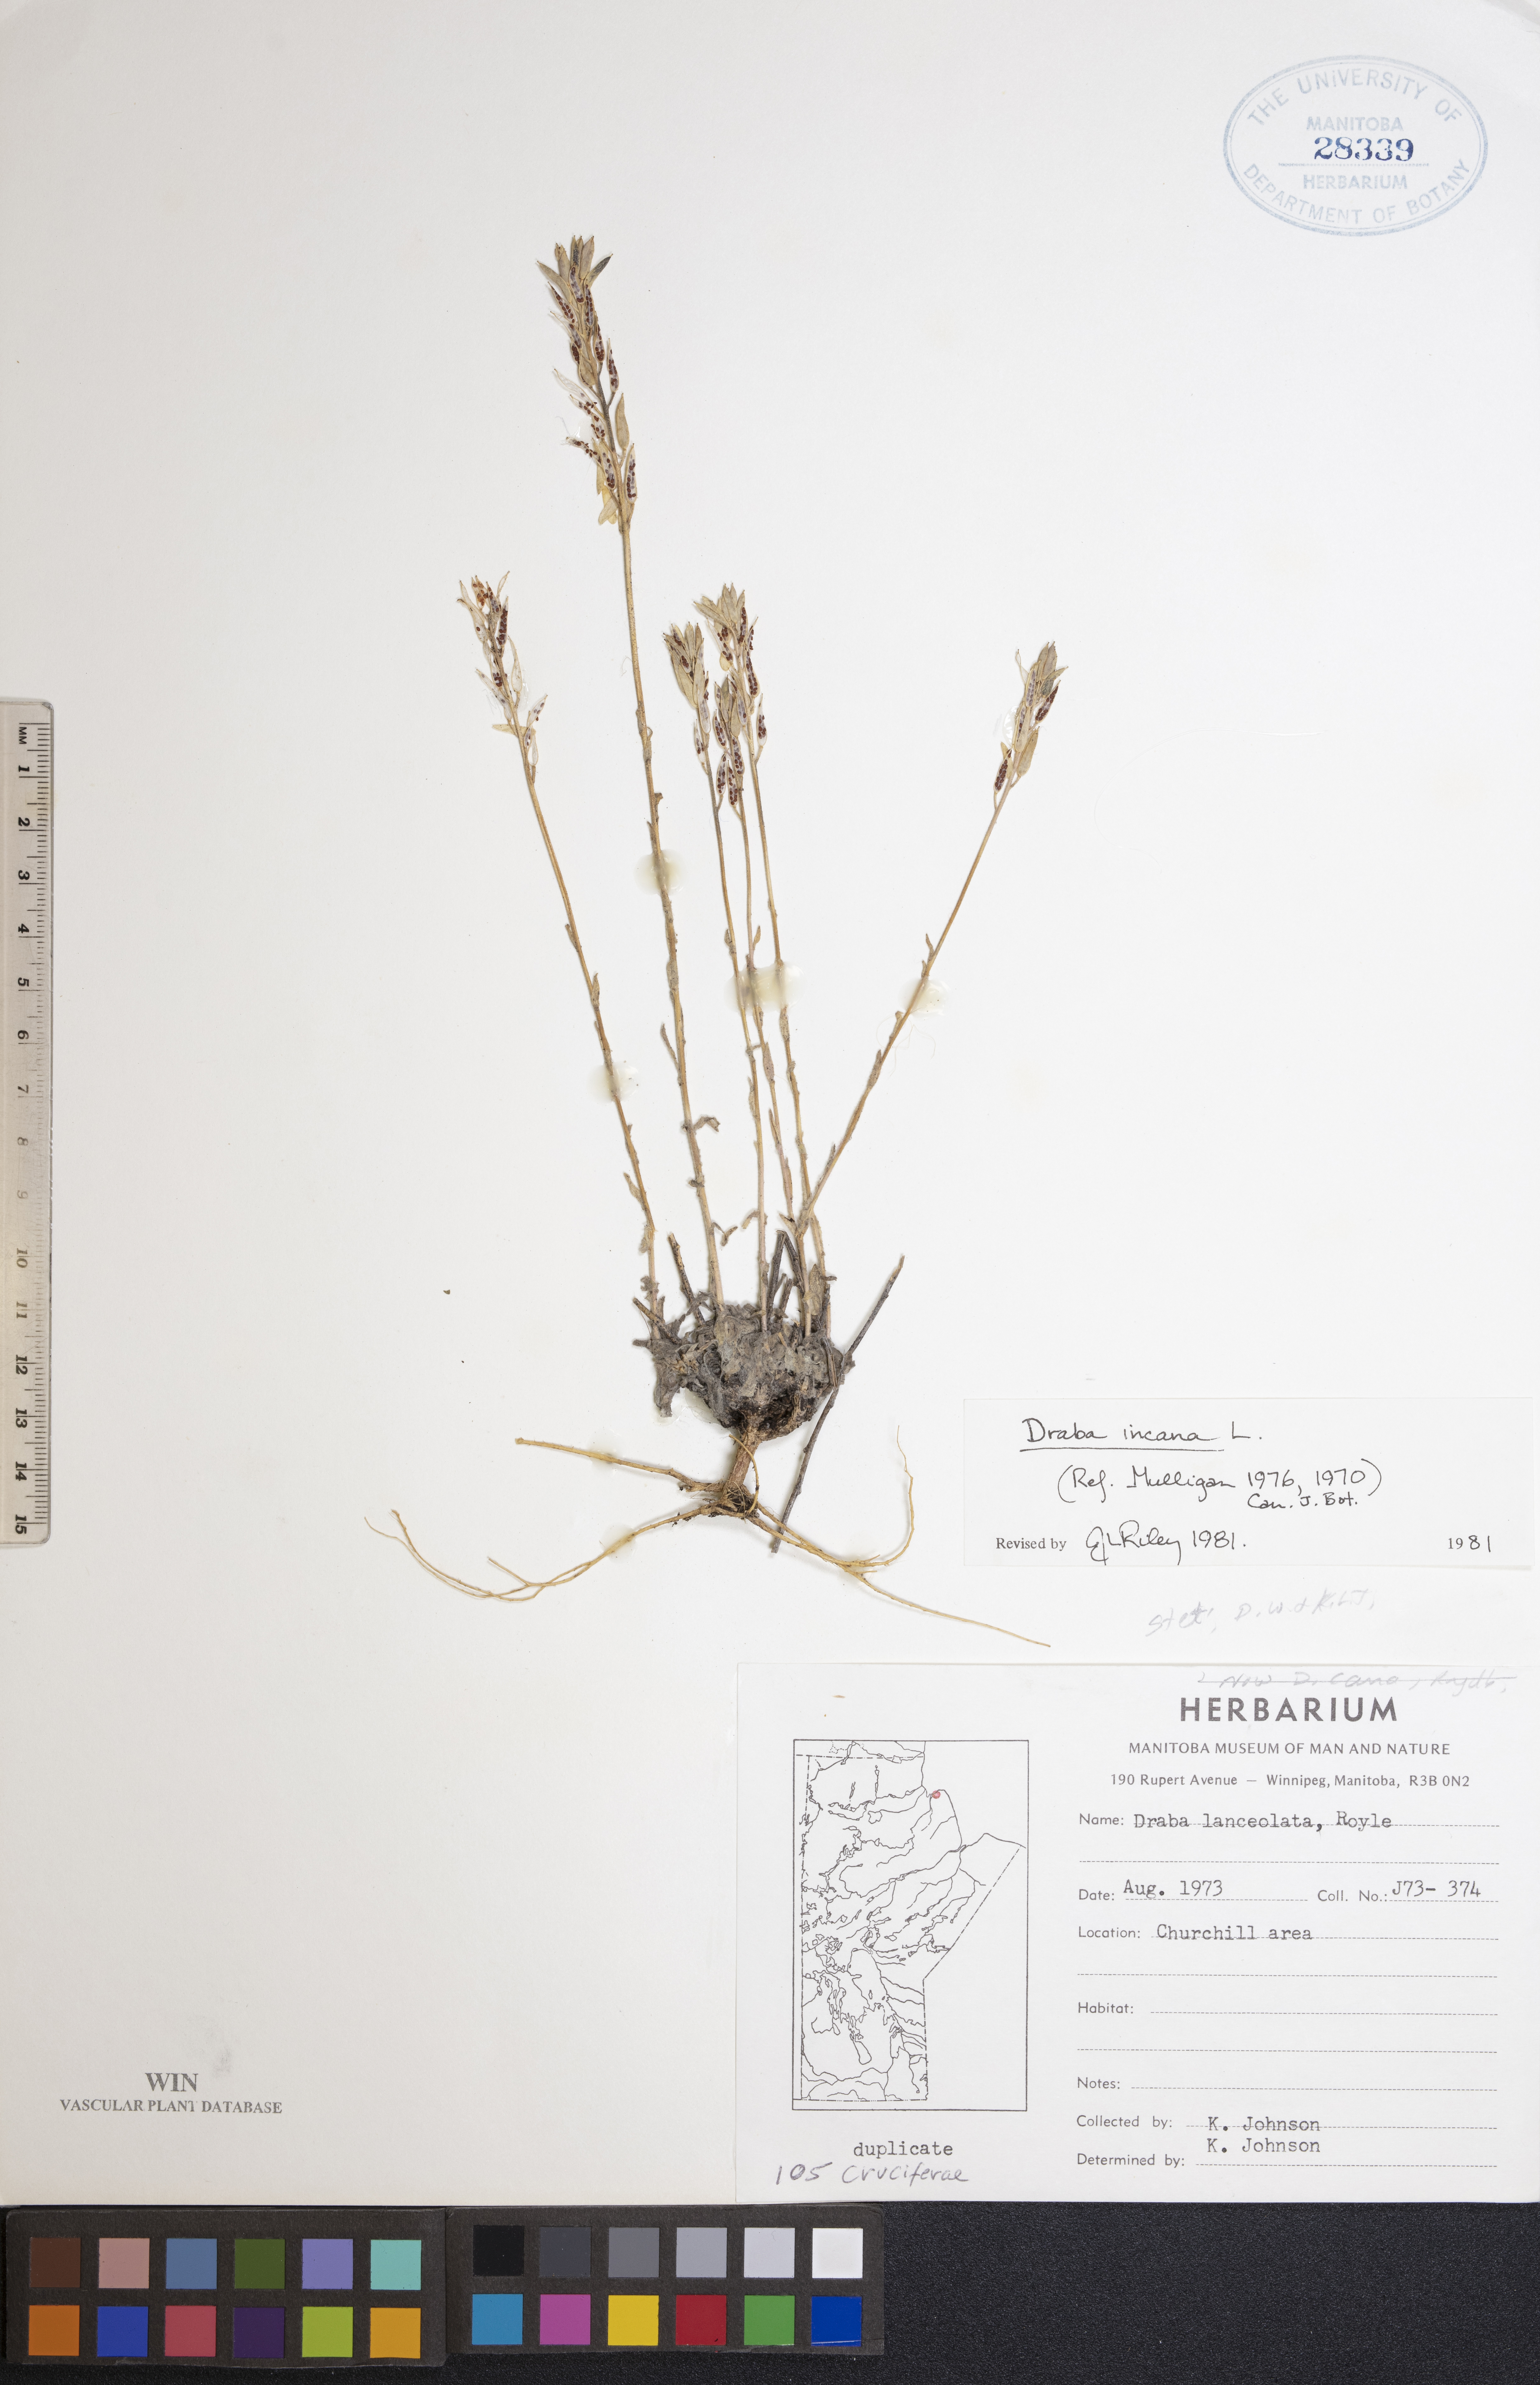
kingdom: Plantae
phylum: Tracheophyta
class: Magnoliopsida
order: Brassicales
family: Brassicaceae
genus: Draba
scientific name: Draba incana
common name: Hoary whitlow-grass
